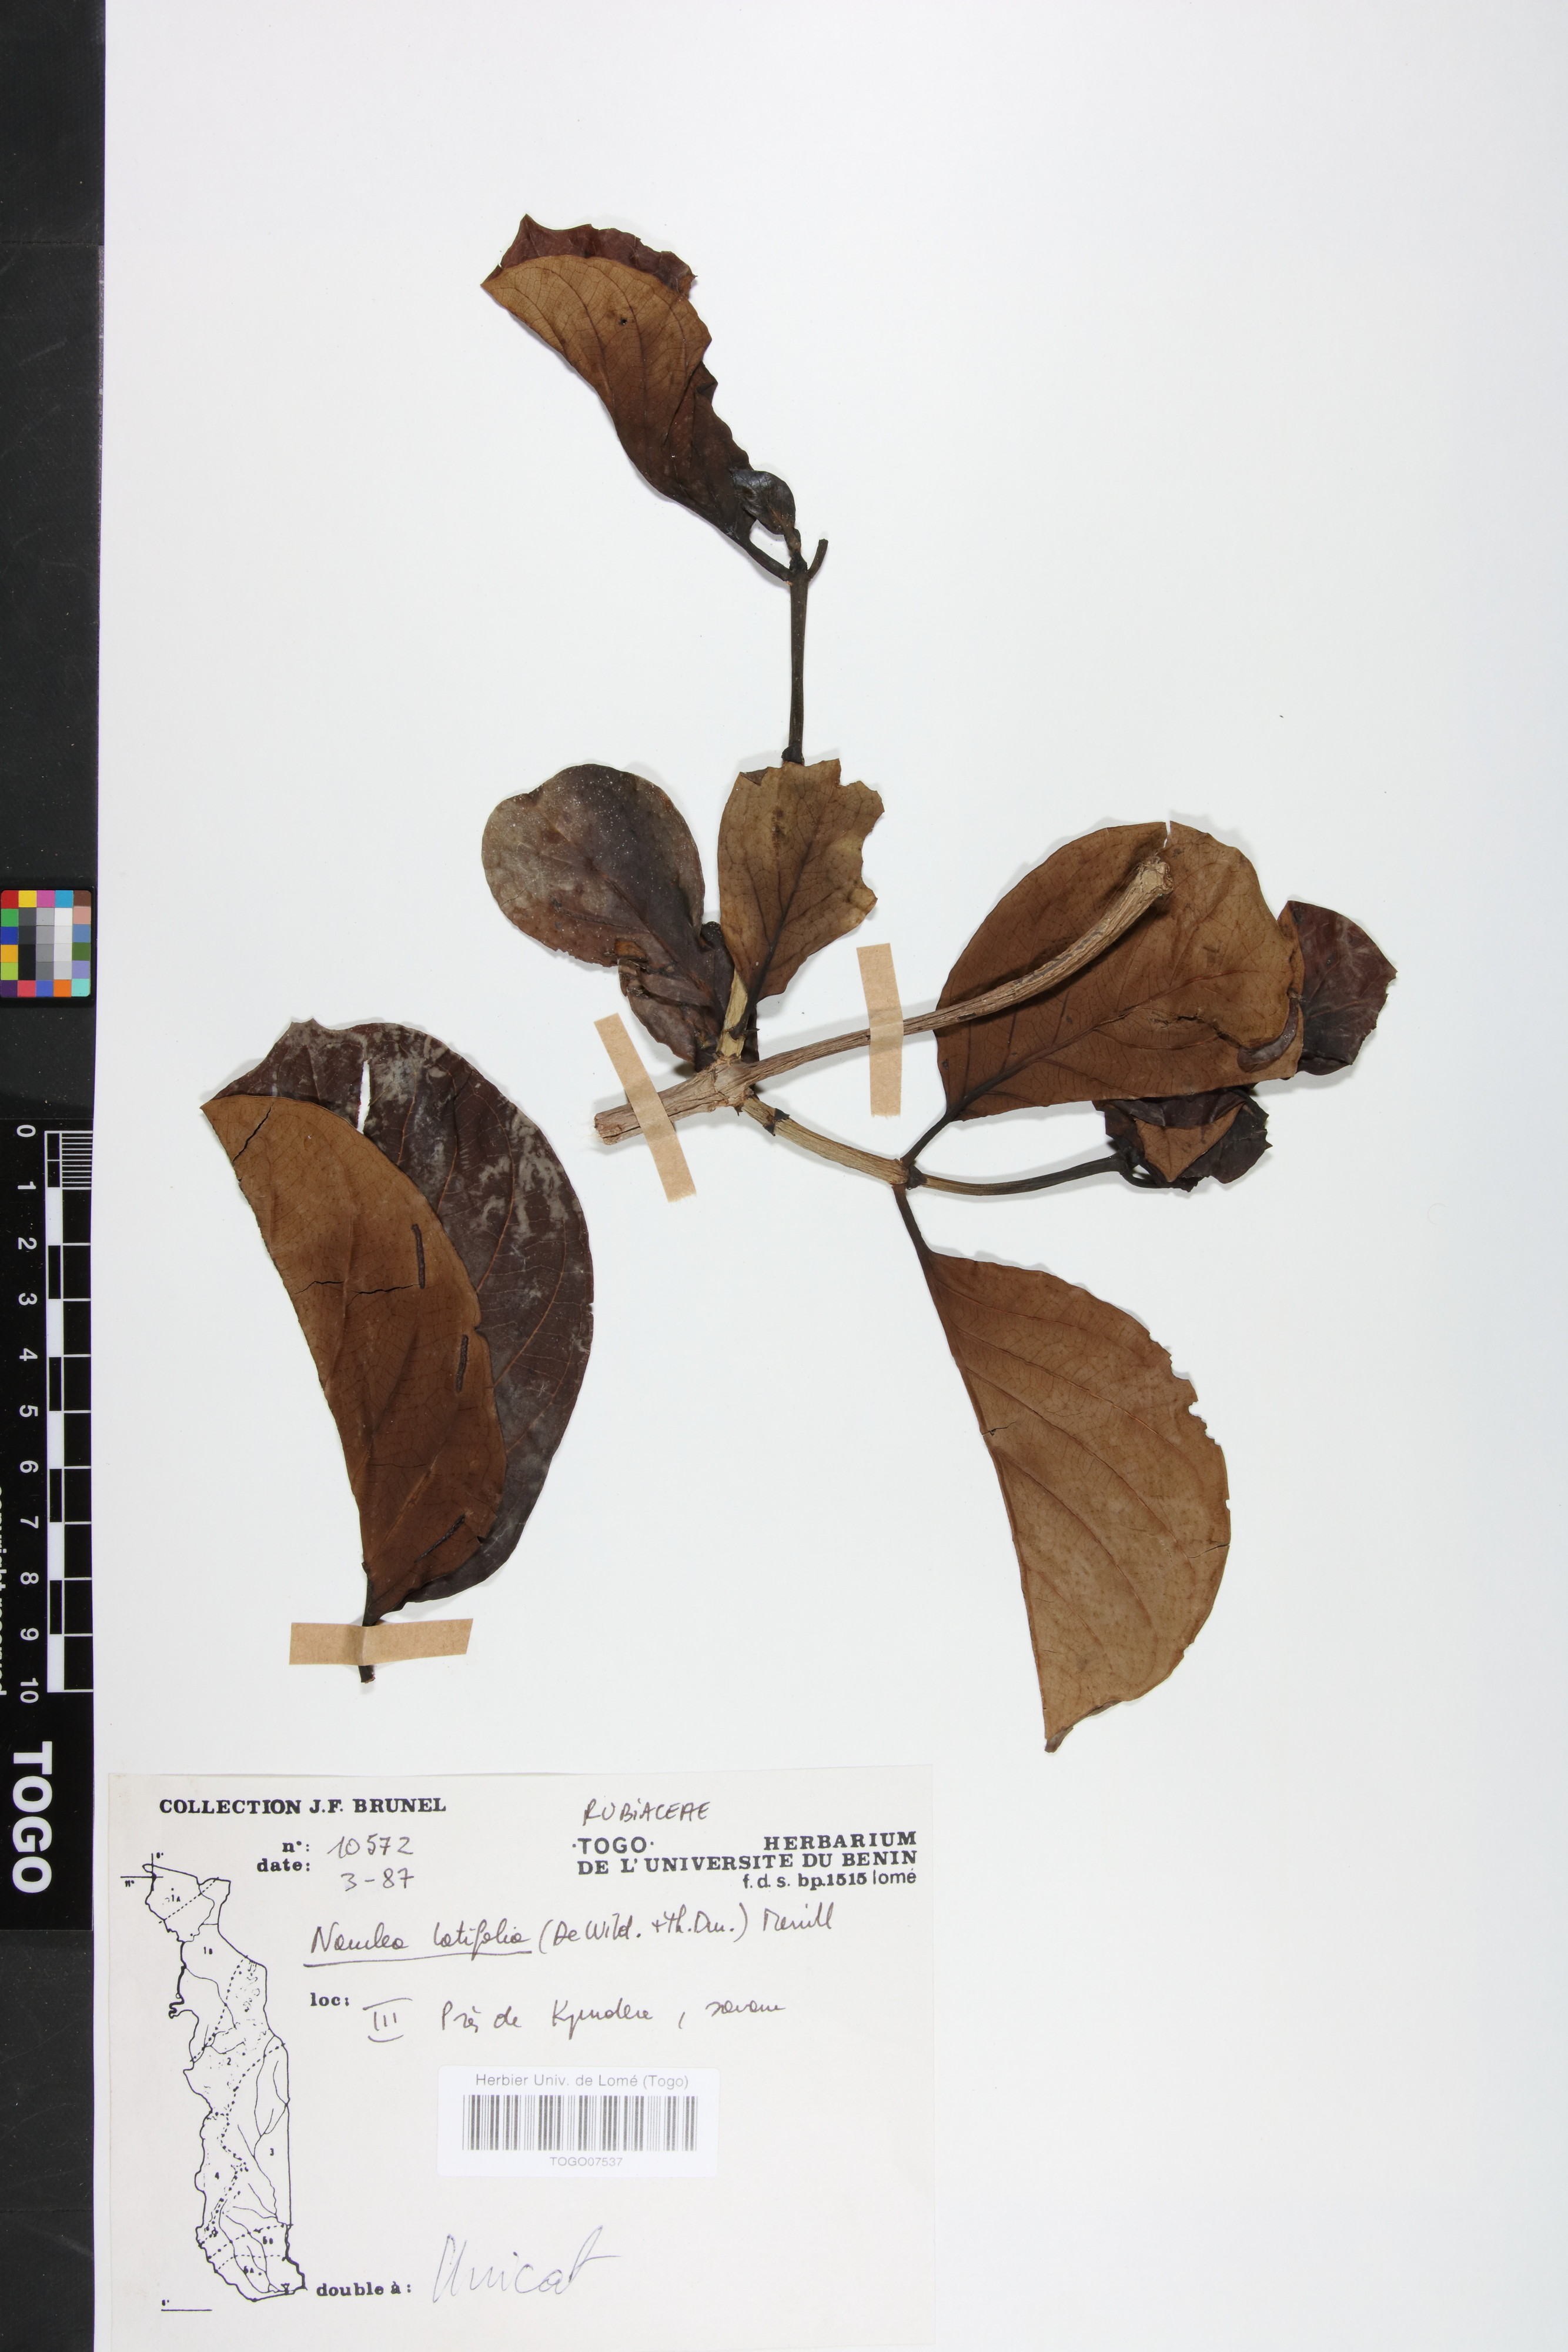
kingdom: Plantae
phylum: Tracheophyta
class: Magnoliopsida
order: Gentianales
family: Rubiaceae
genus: Nauclea
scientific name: Nauclea latifolia
